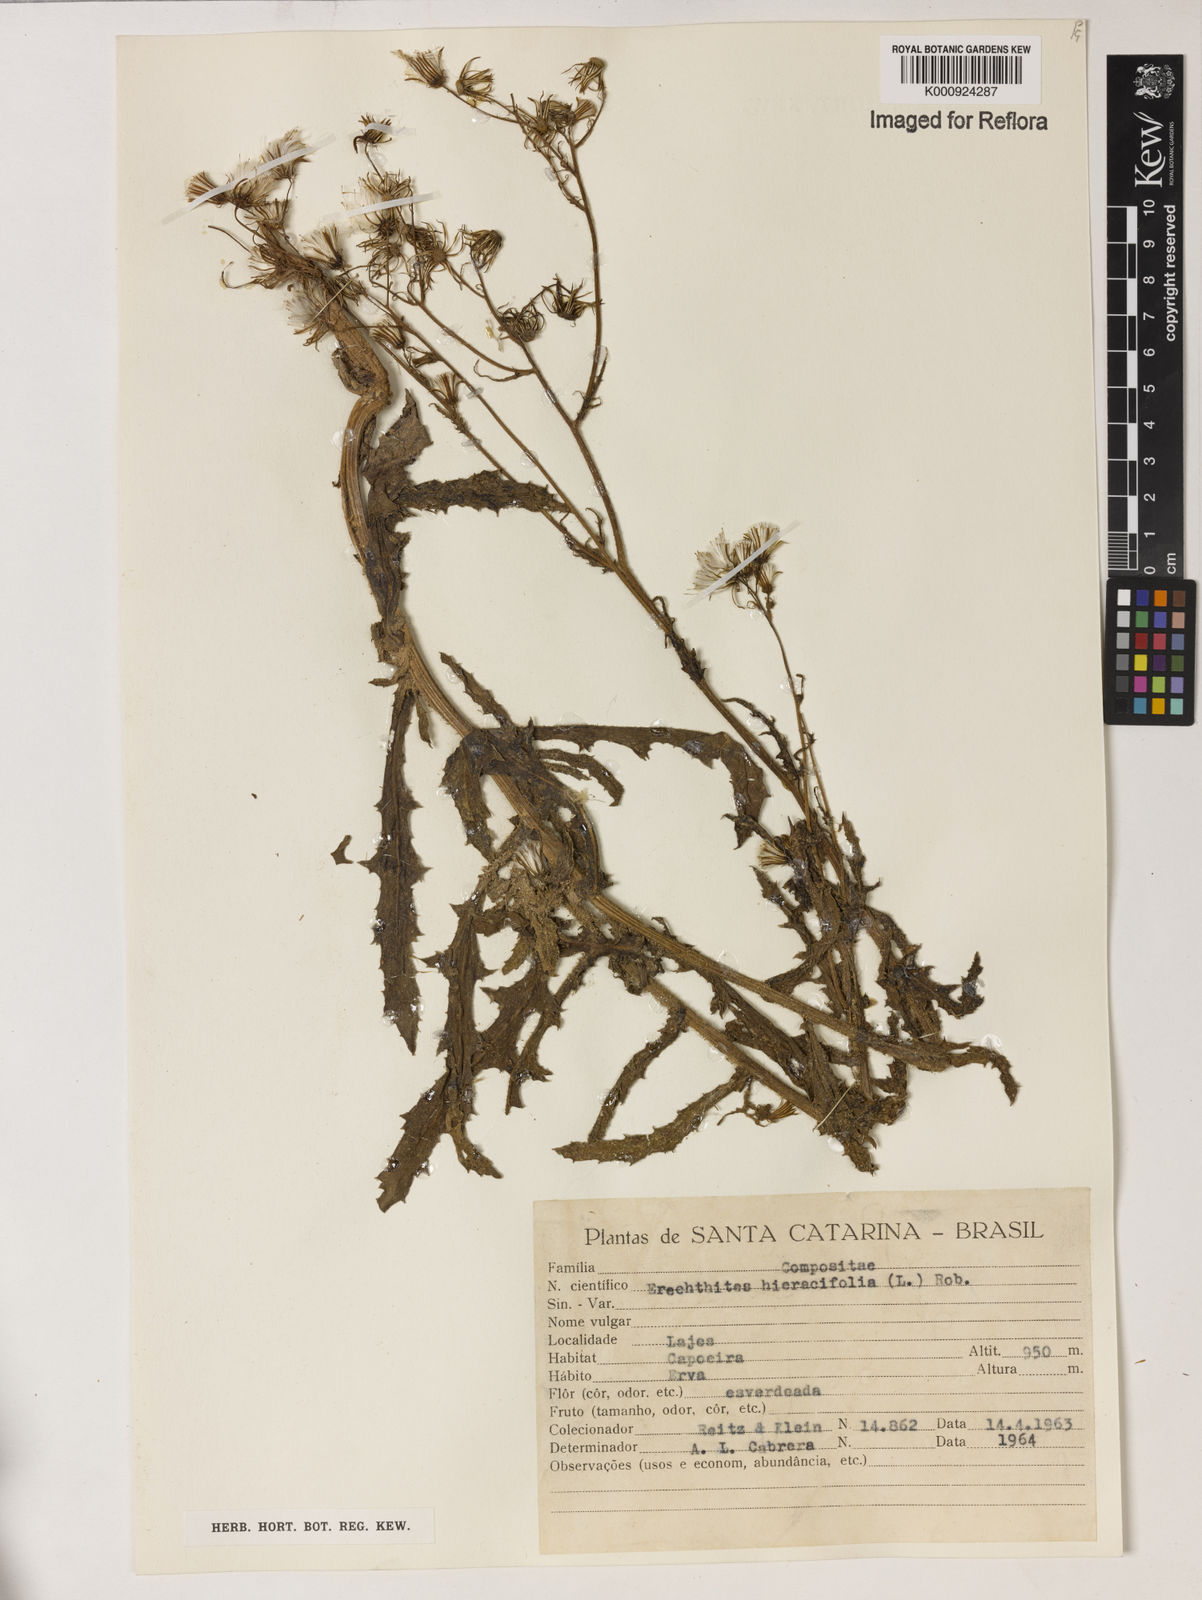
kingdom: Plantae
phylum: Tracheophyta
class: Magnoliopsida
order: Asterales
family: Asteraceae
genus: Erechtites
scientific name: Erechtites hieraciifolius
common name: American burnweed
